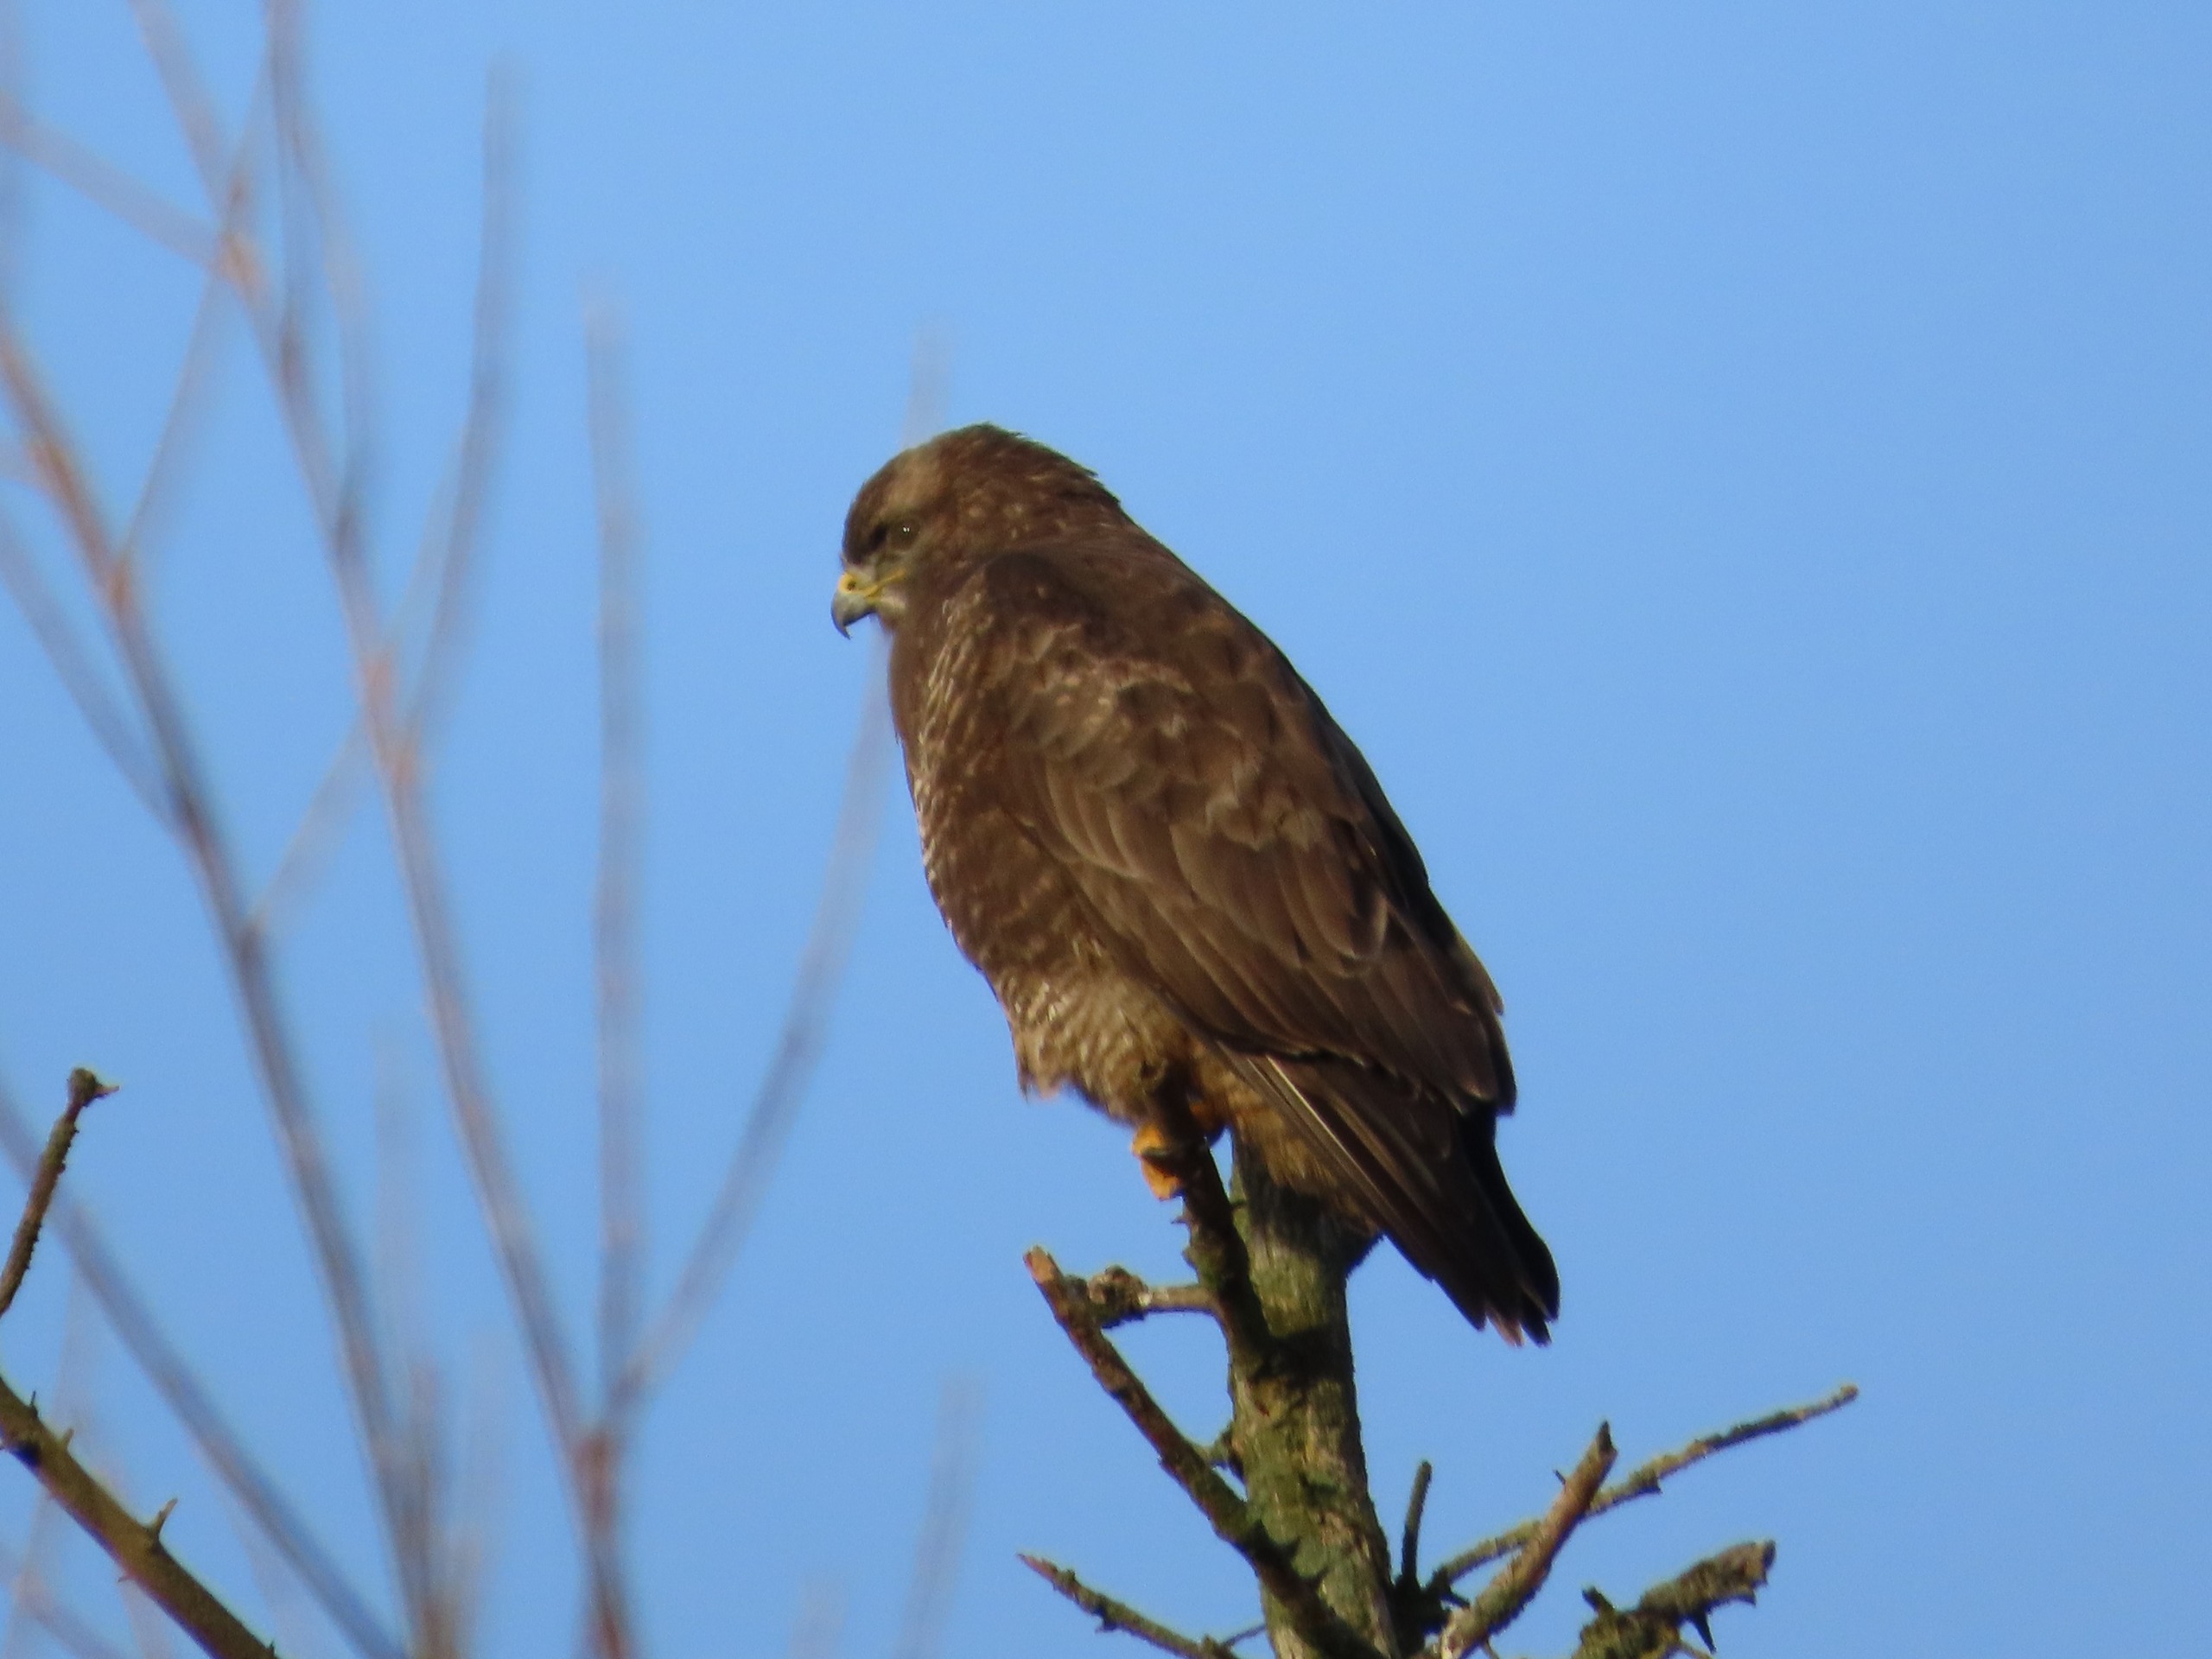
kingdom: Animalia
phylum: Chordata
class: Aves
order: Accipitriformes
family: Accipitridae
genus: Buteo
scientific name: Buteo buteo
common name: Musvåge
